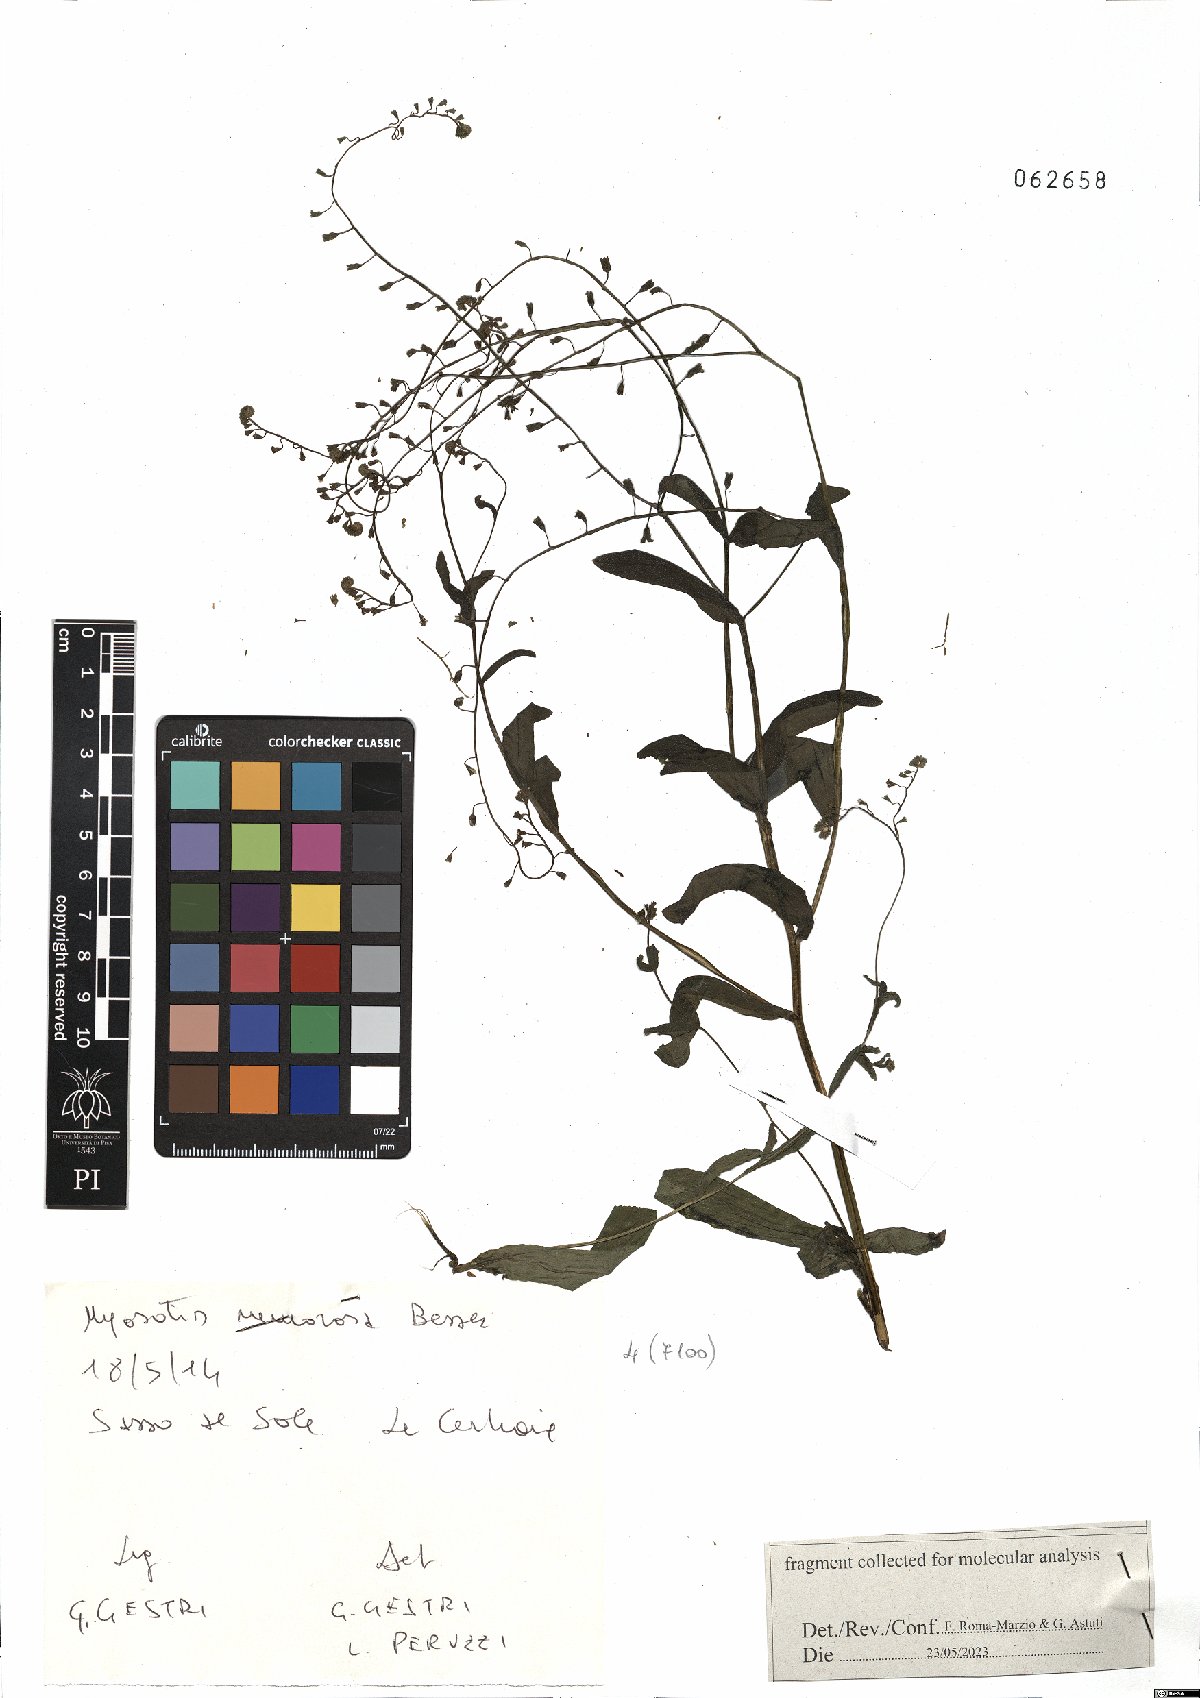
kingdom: Plantae
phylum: Tracheophyta
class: Magnoliopsida
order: Boraginales
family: Boraginaceae
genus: Myosotis
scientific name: Myosotis nemorosa
